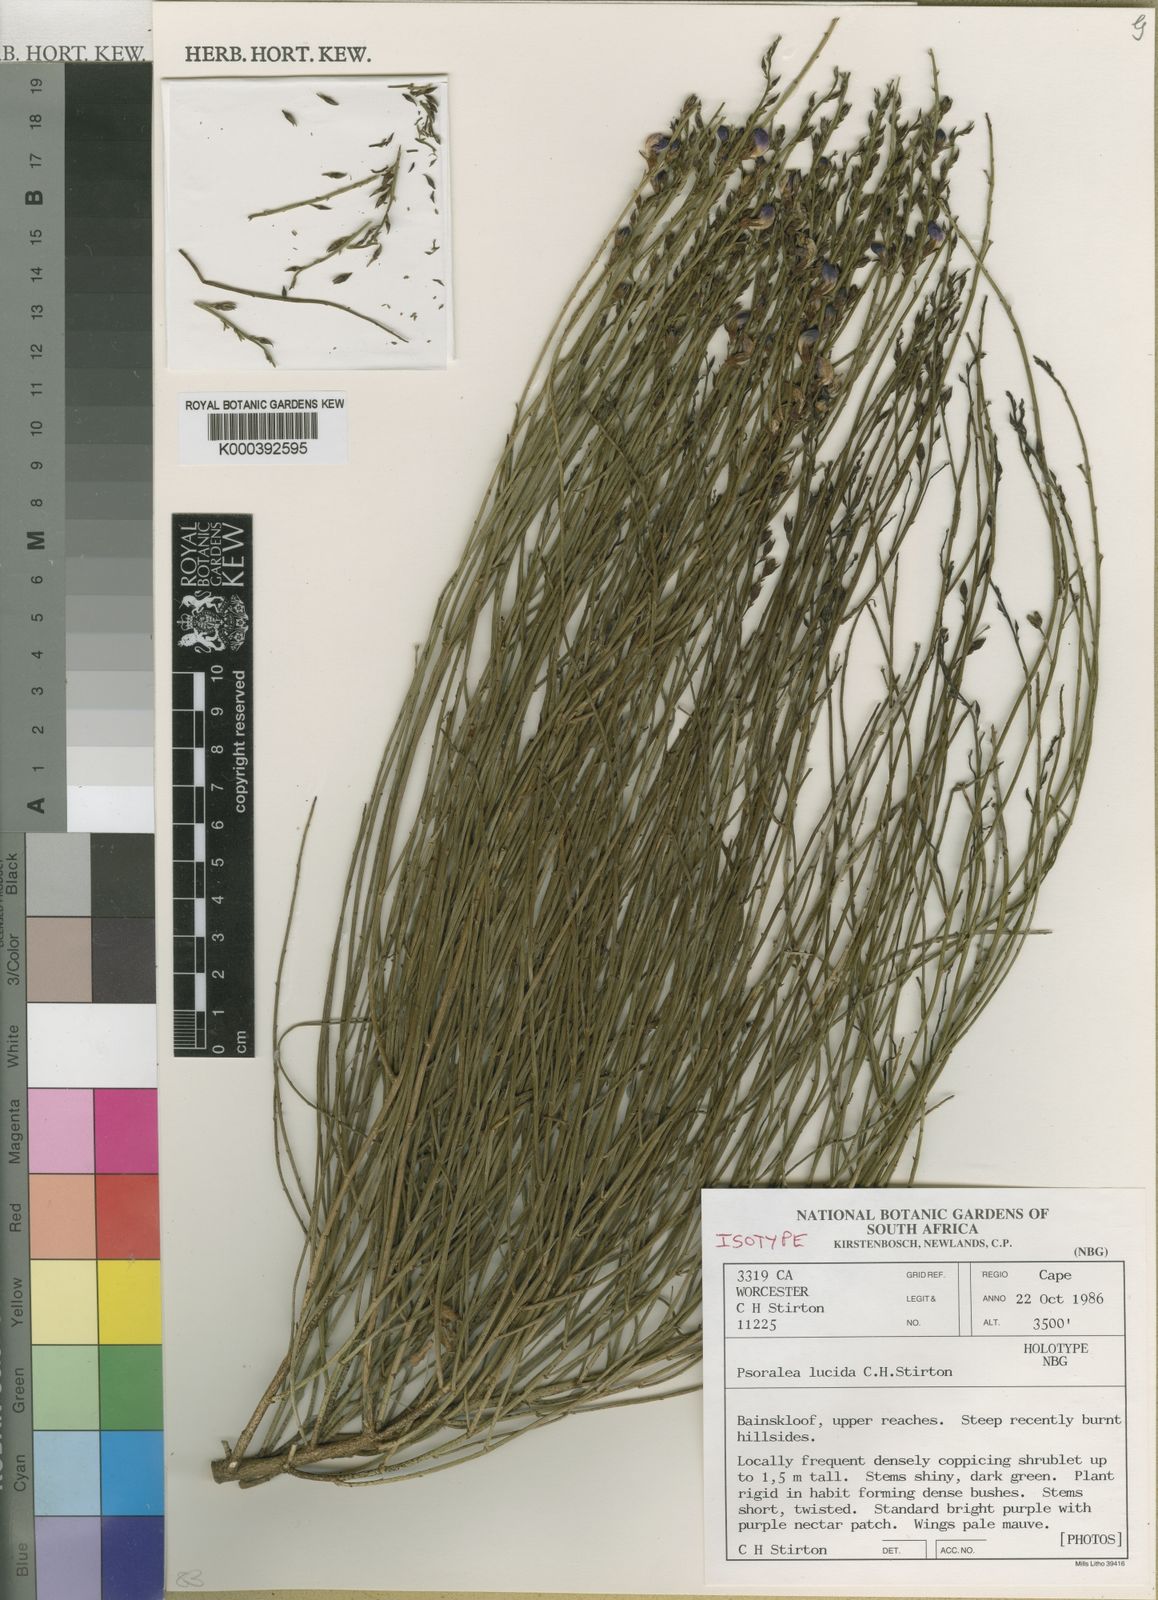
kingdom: Plantae
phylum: Tracheophyta
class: Magnoliopsida
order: Fabales
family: Fabaceae
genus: Psoralea
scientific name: Psoralea
